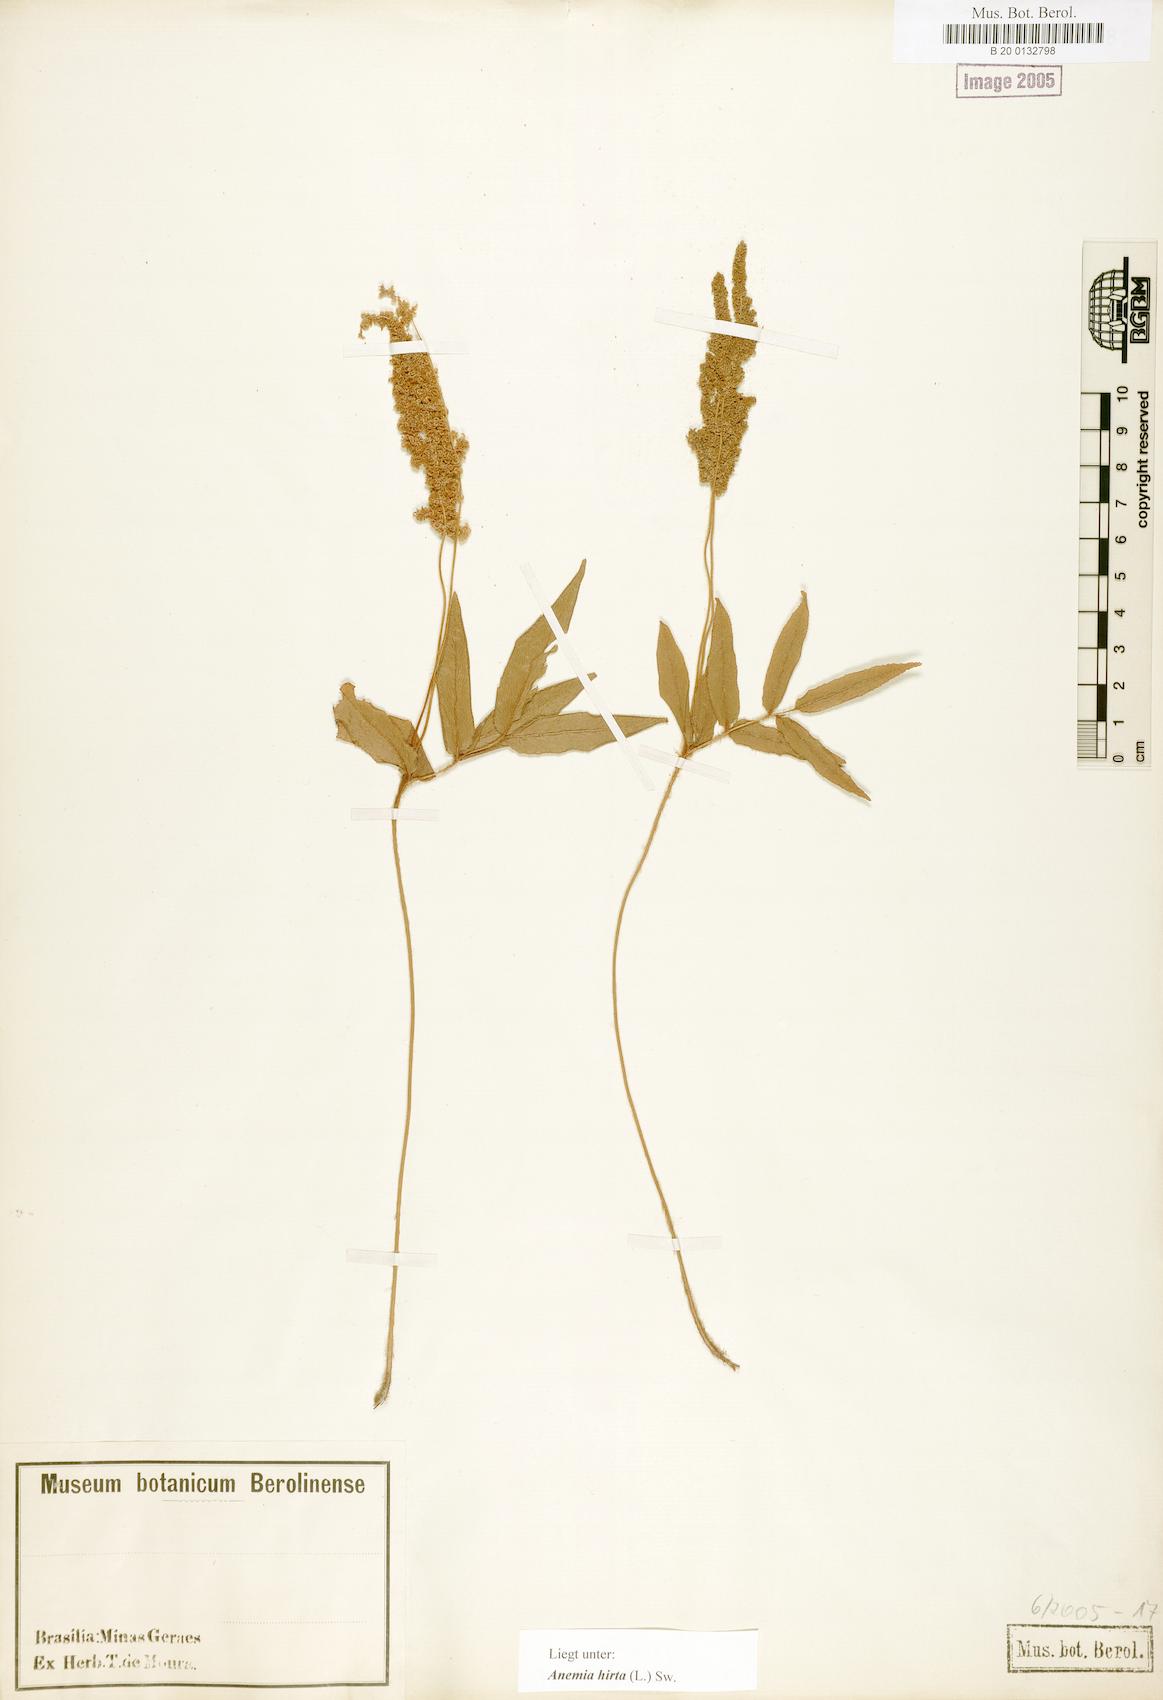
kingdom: Plantae
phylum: Tracheophyta
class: Polypodiopsida
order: Schizaeales
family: Anemiaceae
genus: Anemia
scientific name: Anemia hirta
